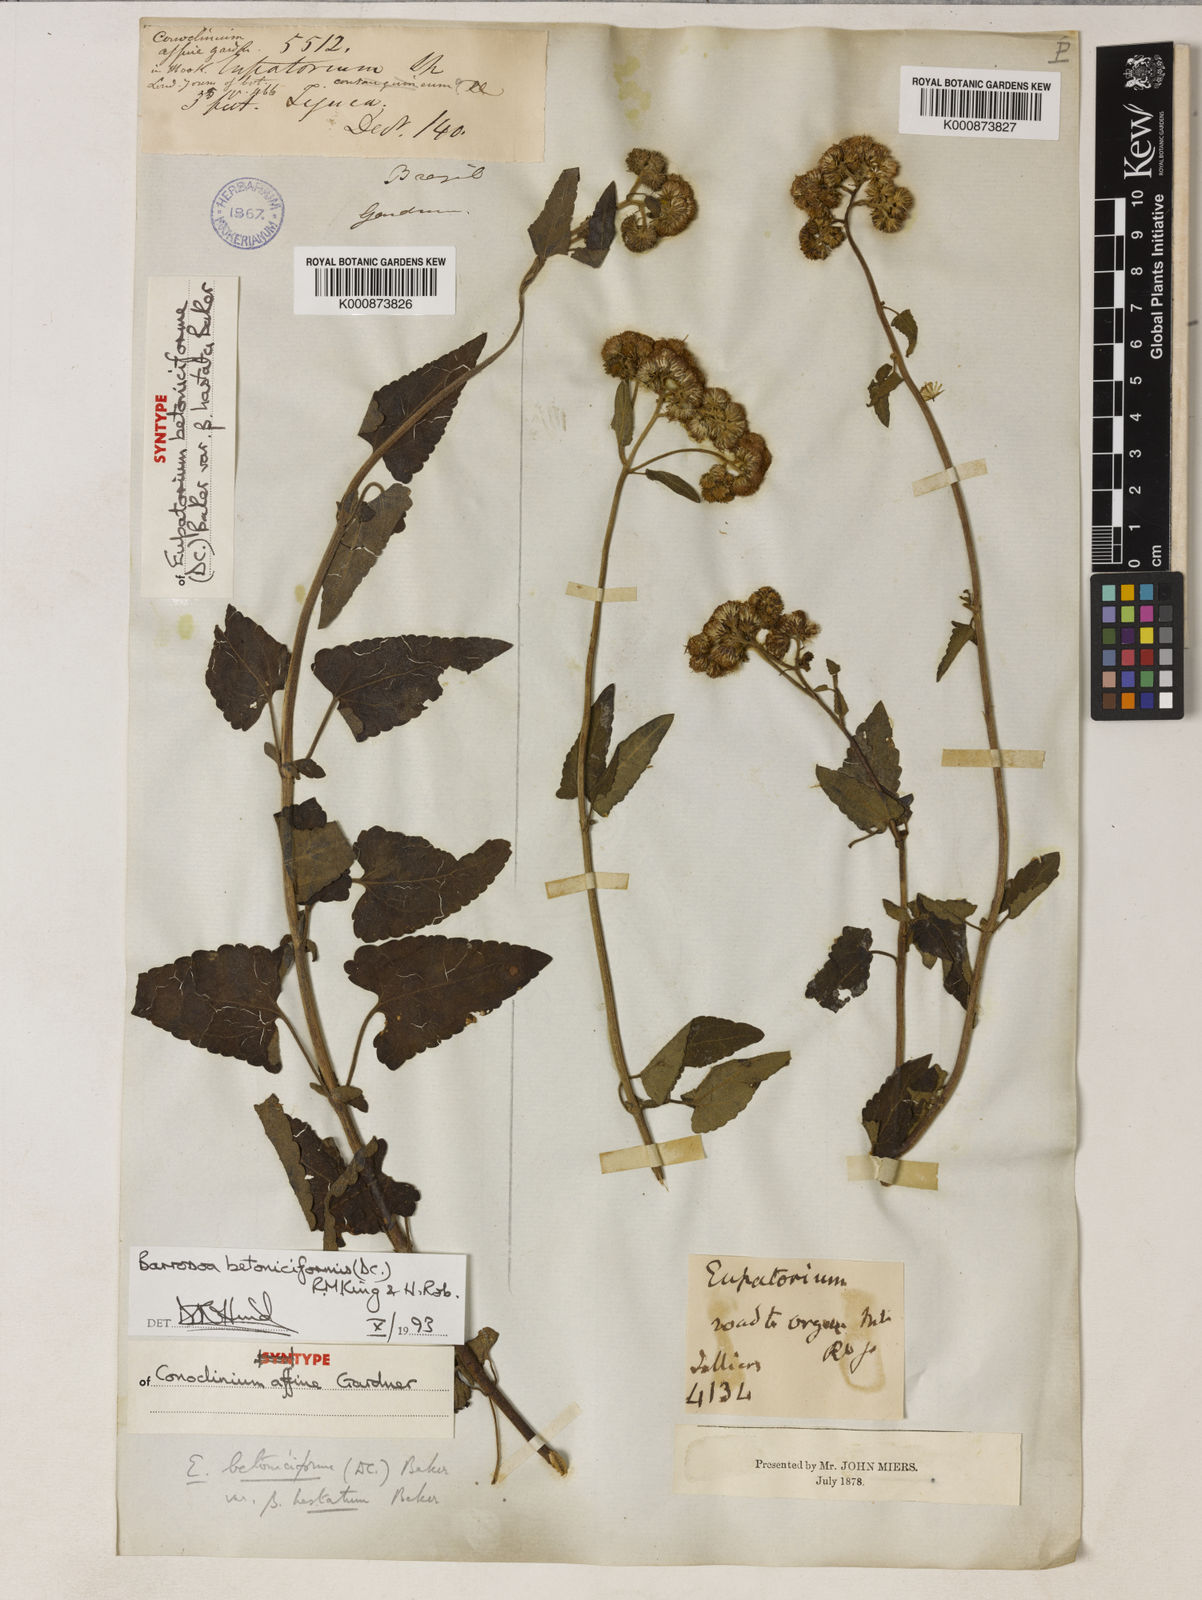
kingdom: Plantae
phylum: Tracheophyta
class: Magnoliopsida
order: Asterales
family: Asteraceae
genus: Barrosoa
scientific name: Barrosoa betoniciformis
